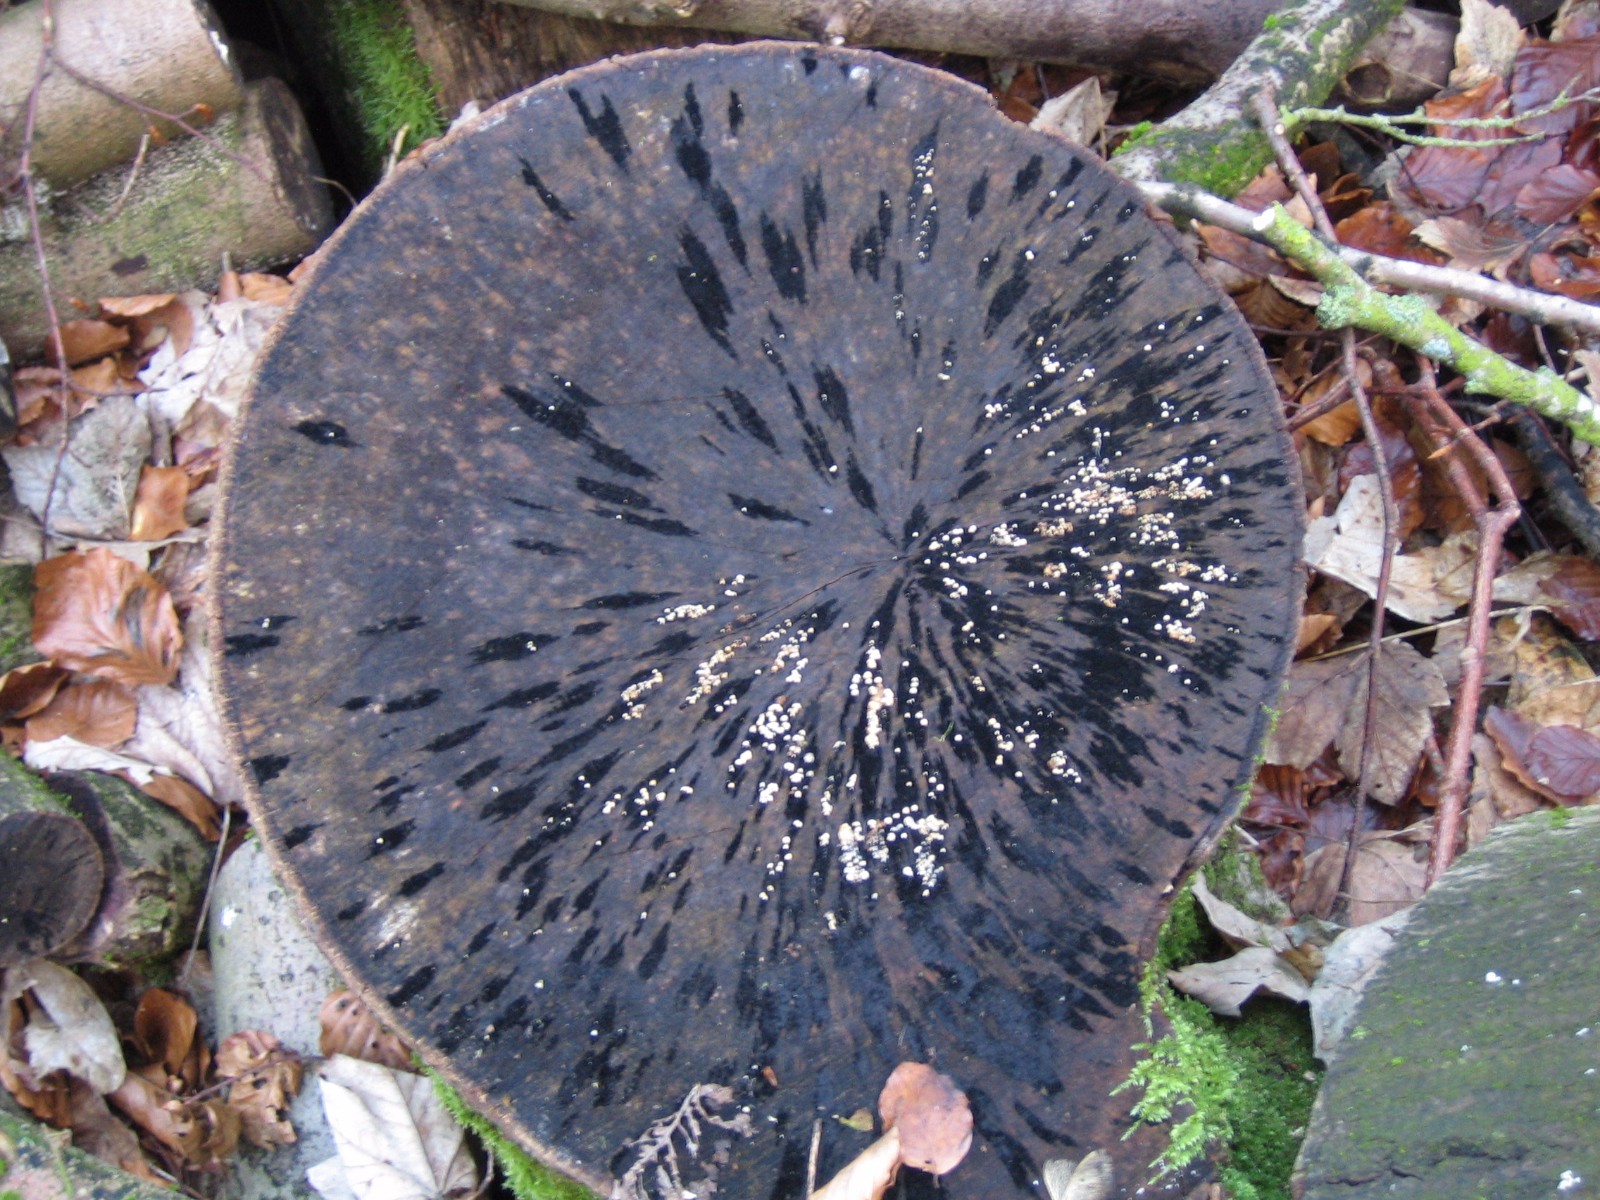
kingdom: Fungi
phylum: Ascomycota
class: Leotiomycetes
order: Helotiales
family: Helotiaceae
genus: Bispora
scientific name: Bispora pallescens
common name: måtte-snitskive
